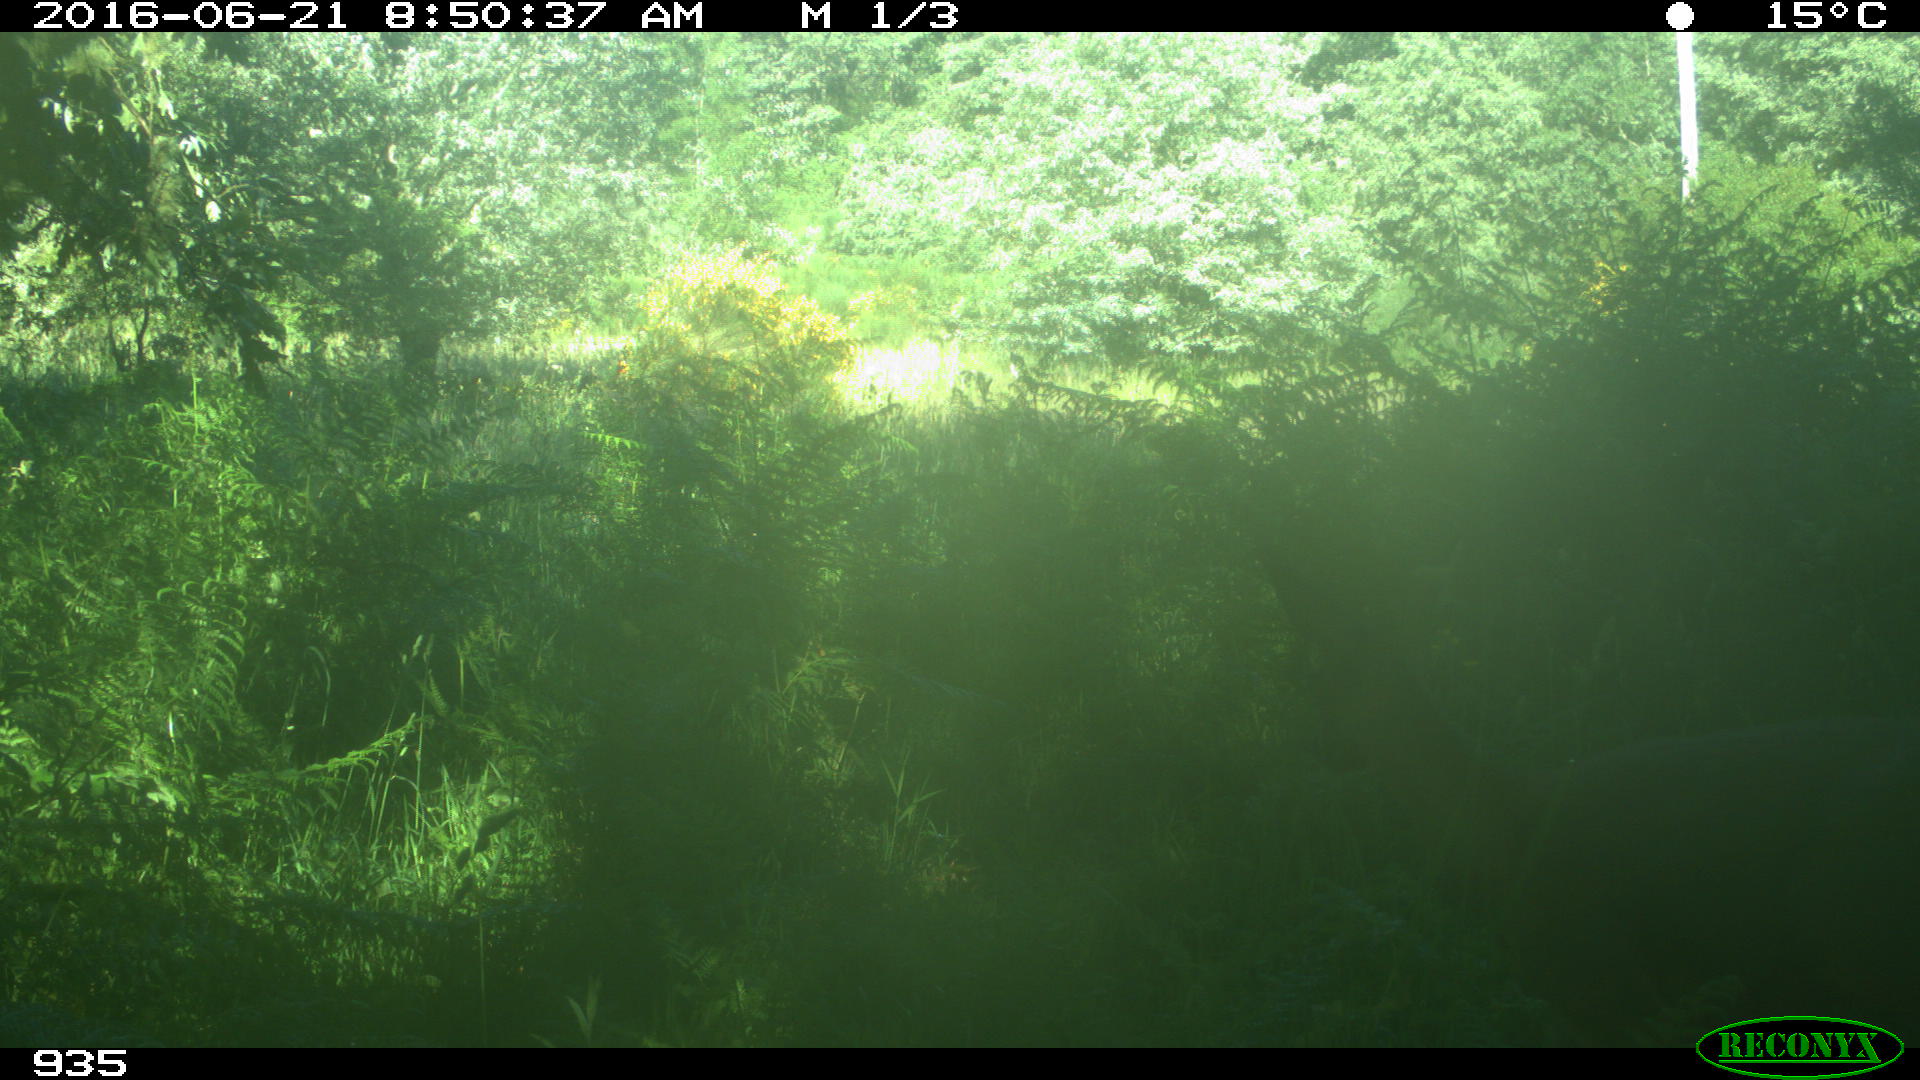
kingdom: Animalia
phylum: Chordata
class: Mammalia
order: Artiodactyla
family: Cervidae
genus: Capreolus
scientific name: Capreolus capreolus
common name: Western roe deer
